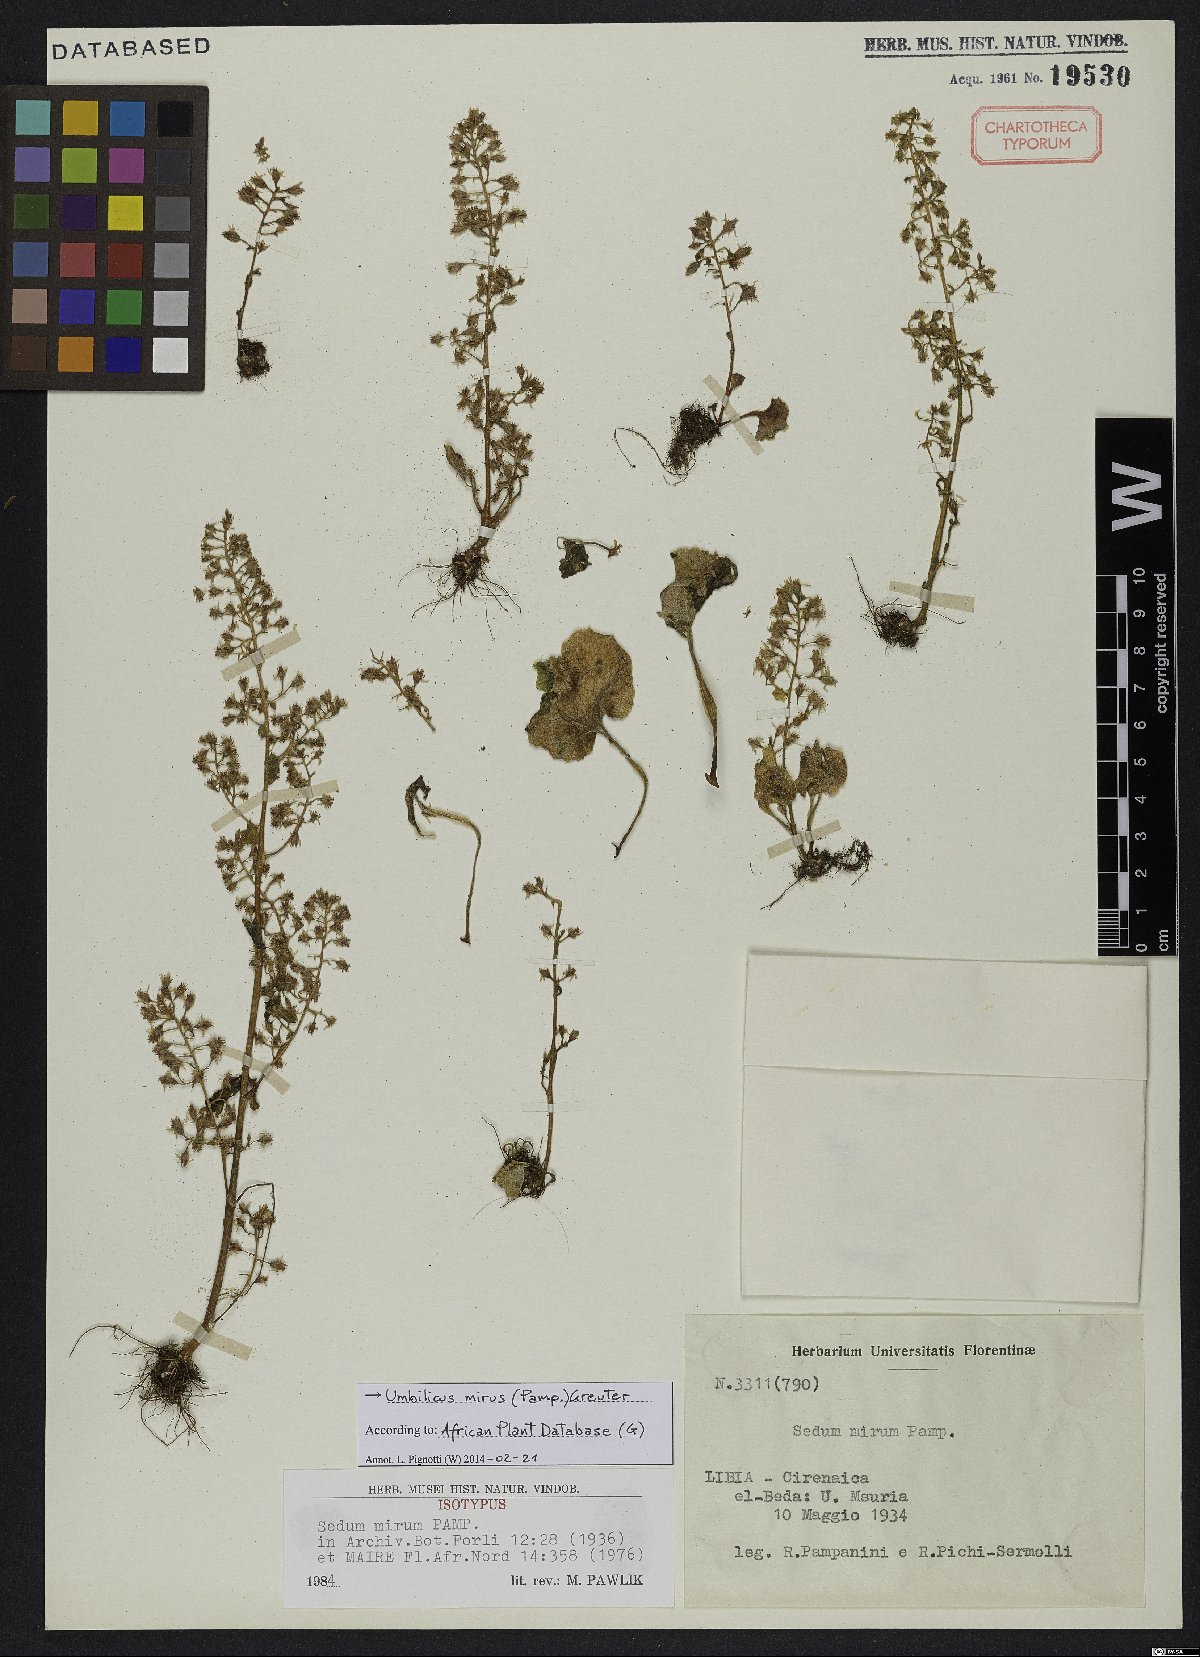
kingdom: Plantae
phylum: Tracheophyta
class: Magnoliopsida
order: Saxifragales
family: Crassulaceae
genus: Umbilicus
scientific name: Umbilicus mirus
